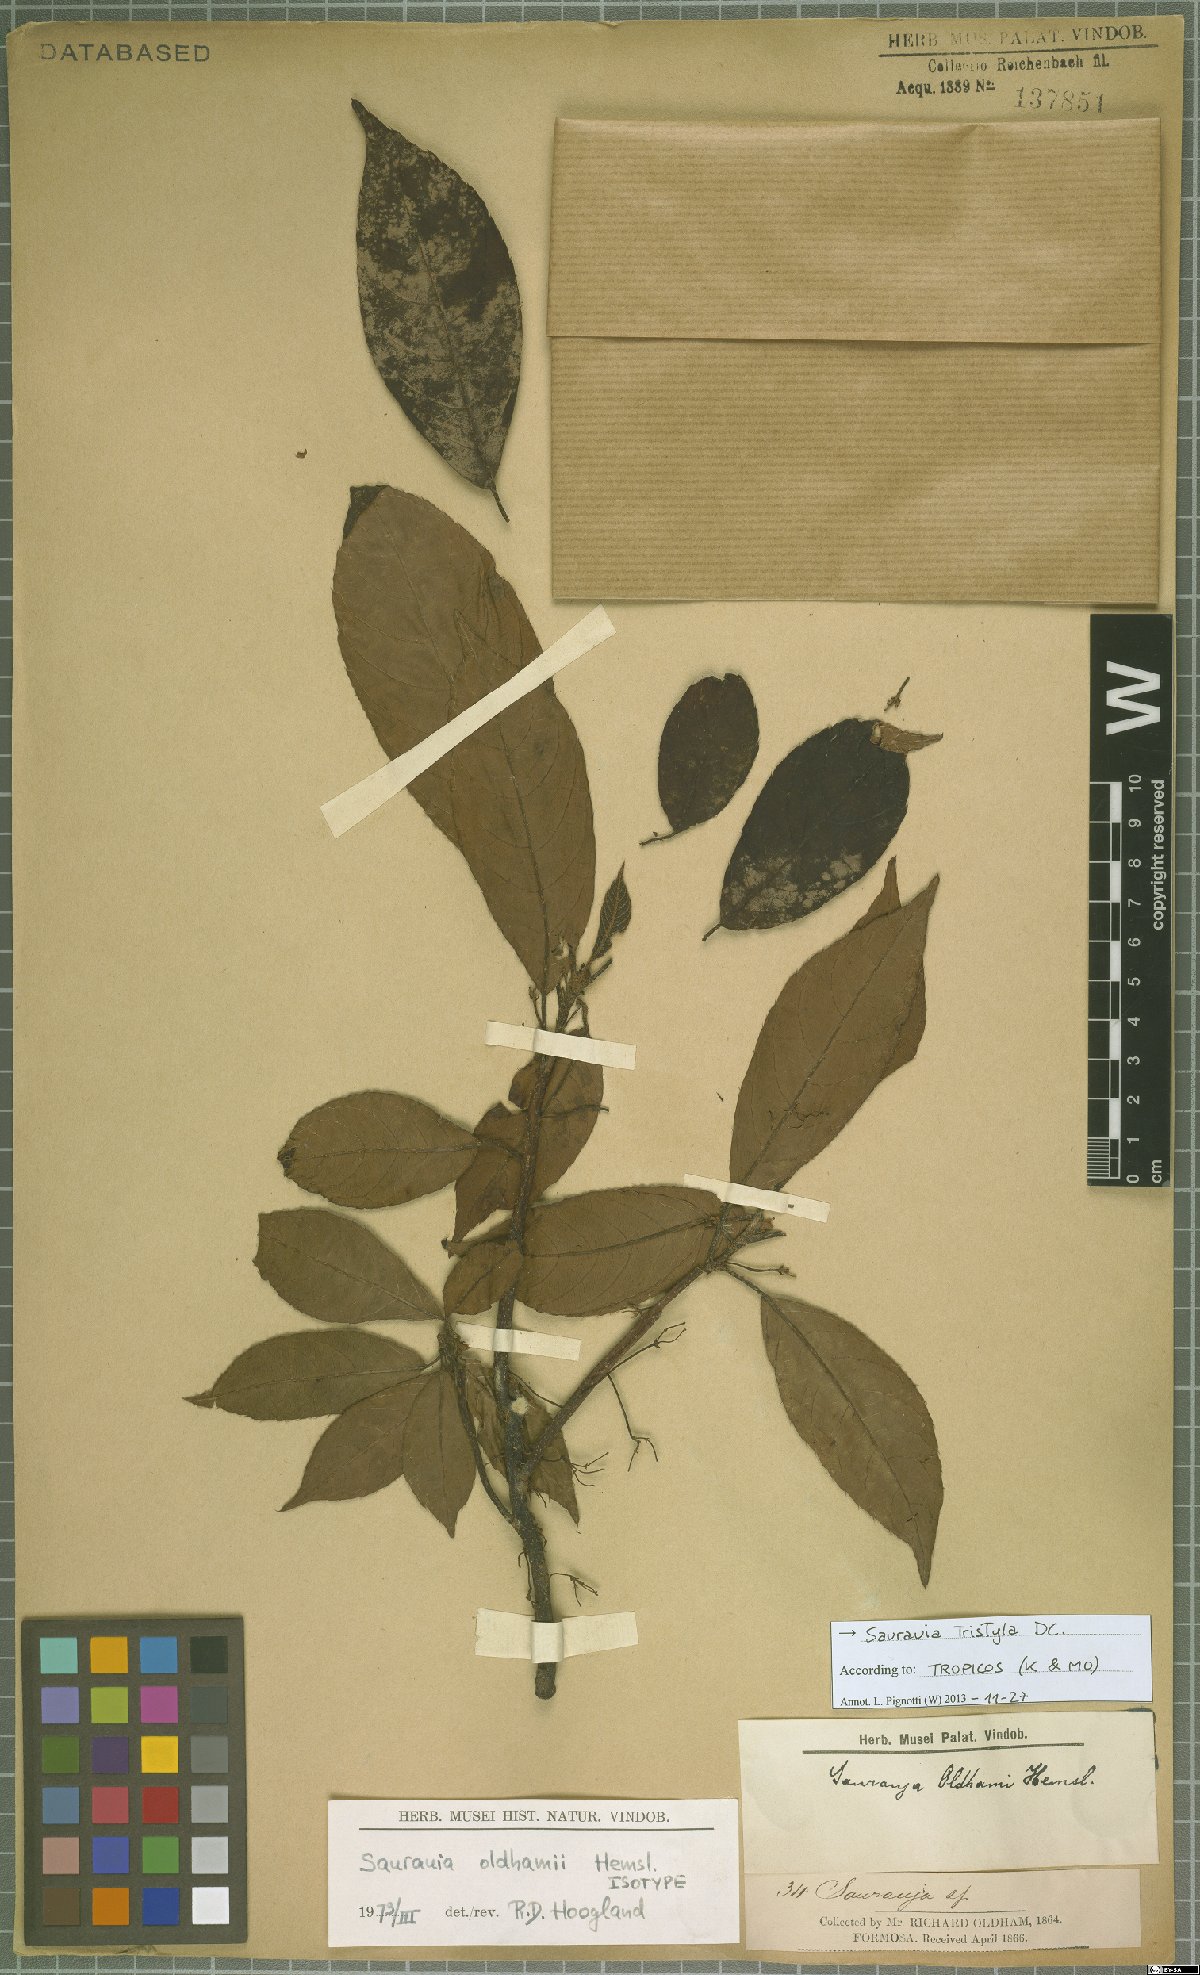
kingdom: Plantae
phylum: Tracheophyta
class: Magnoliopsida
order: Ericales
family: Actinidiaceae
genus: Saurauia
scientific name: Saurauia tristyla
